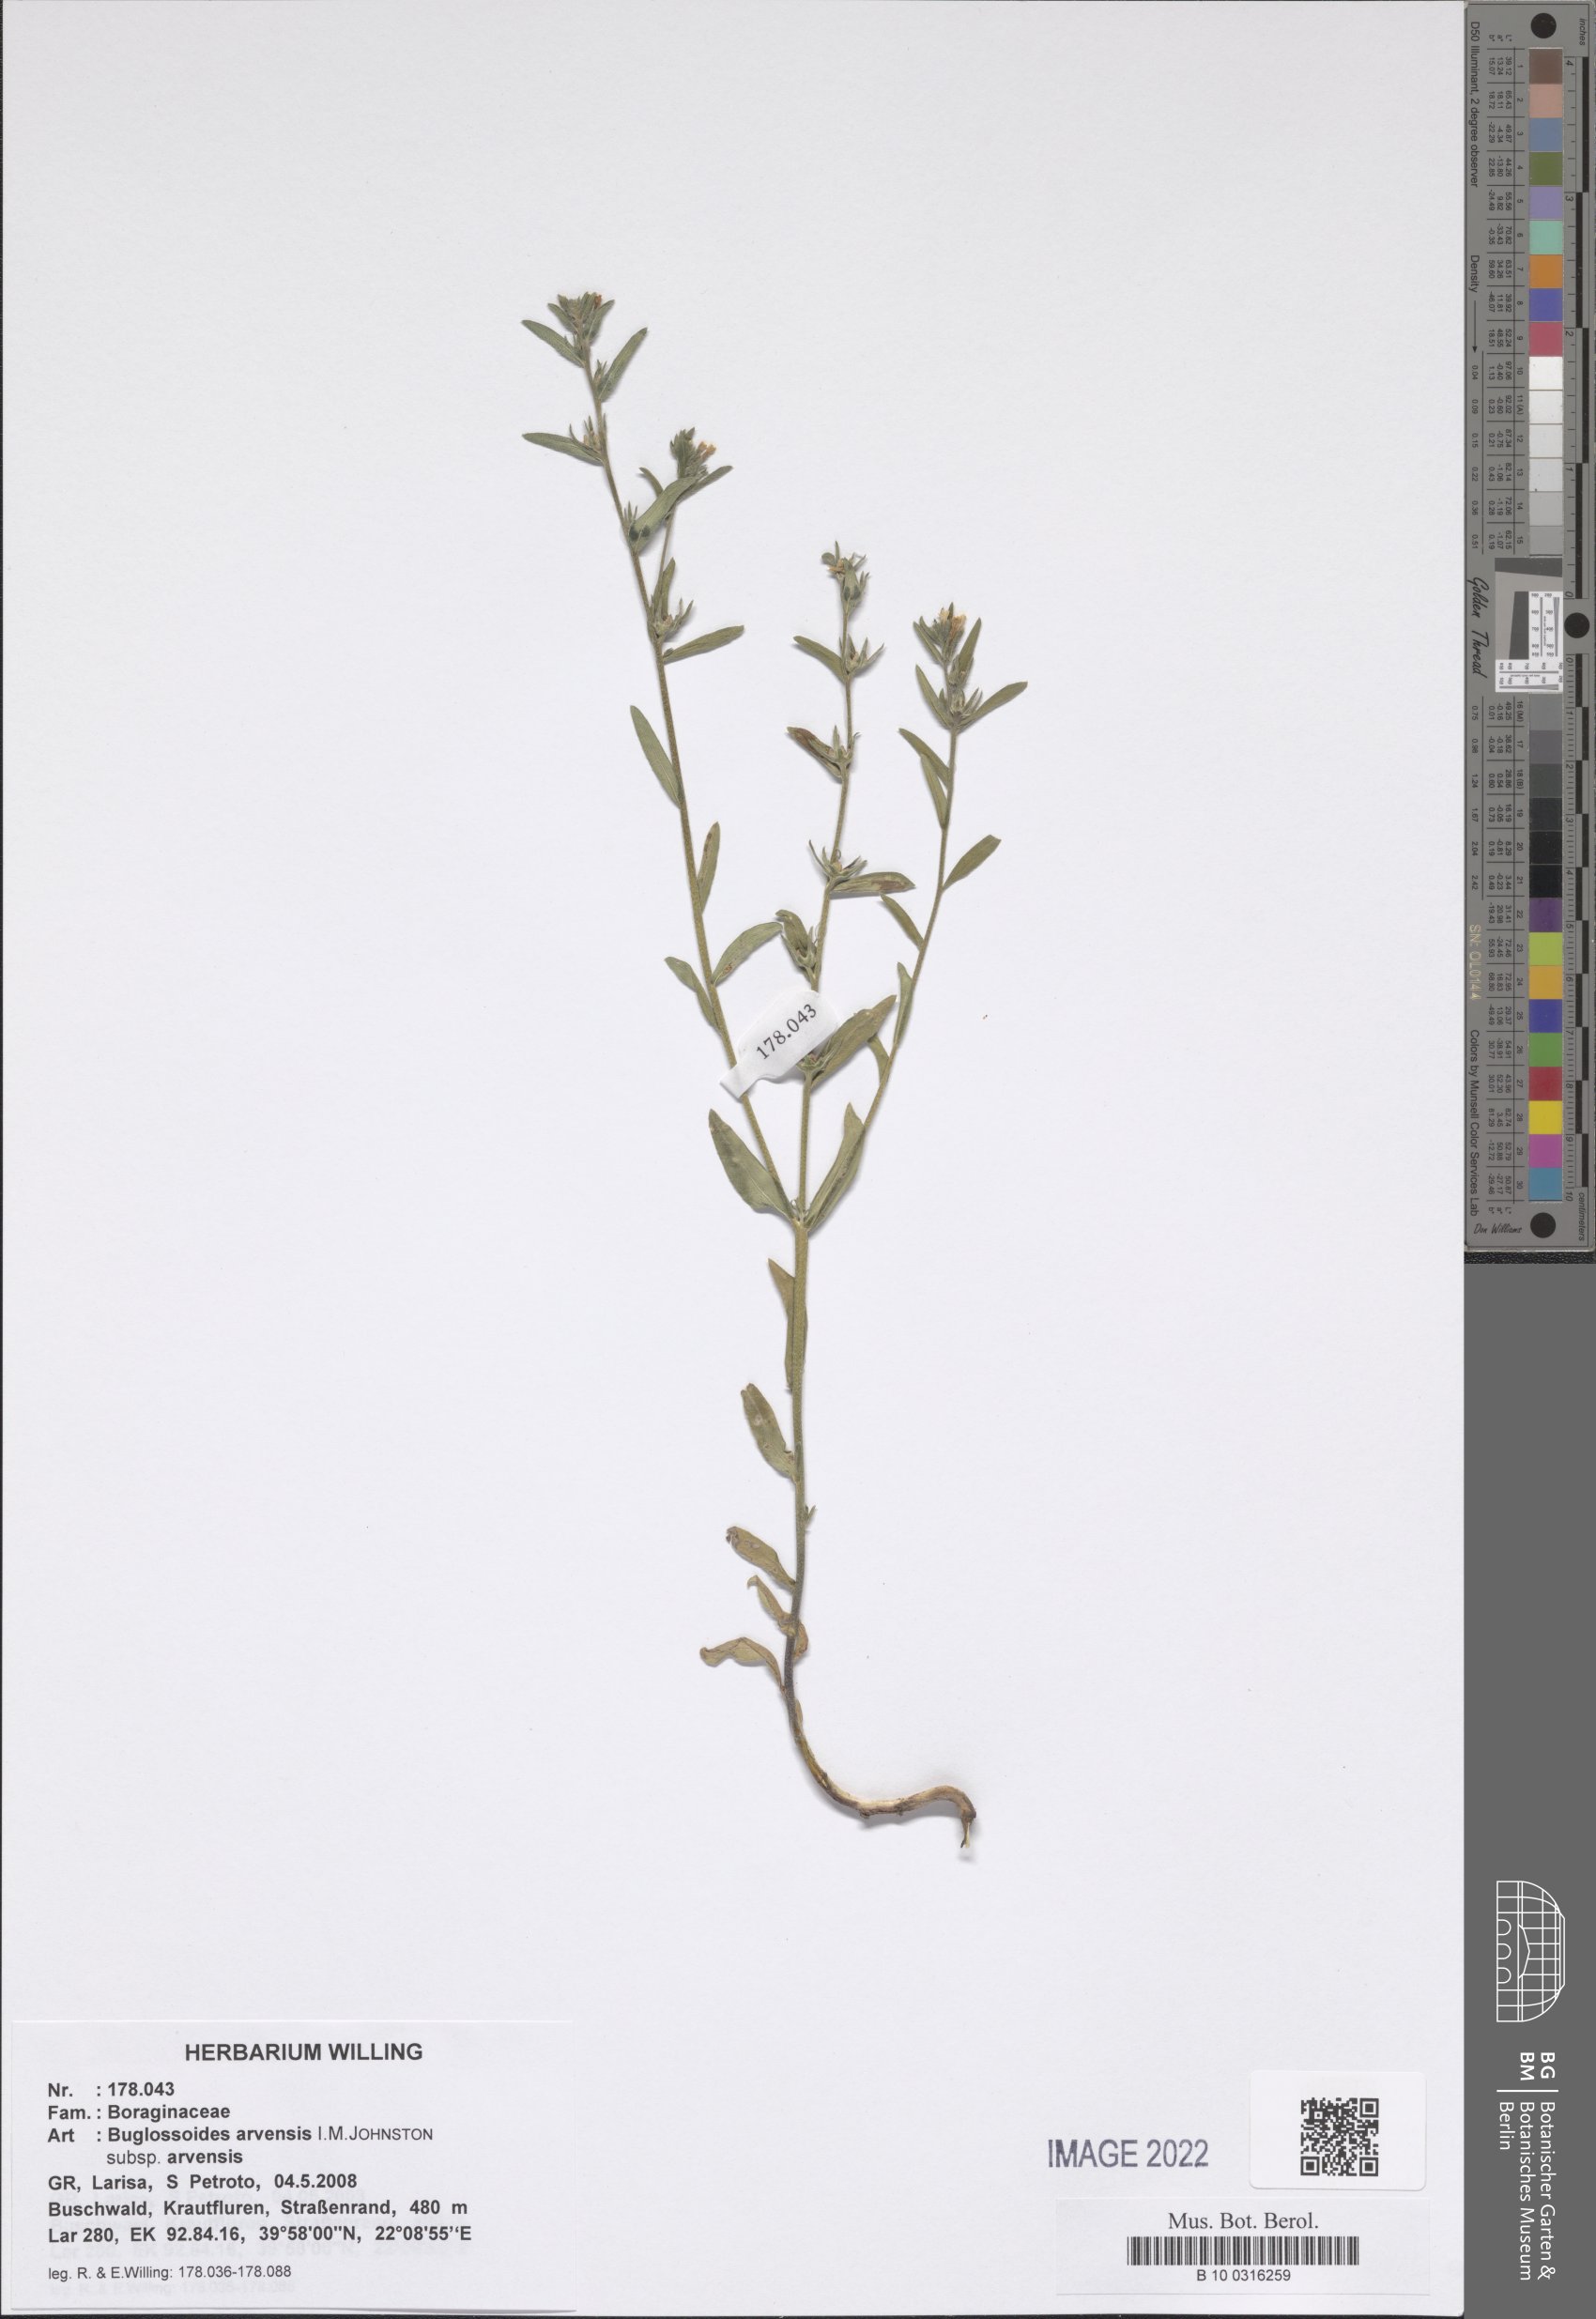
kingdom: Plantae
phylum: Tracheophyta
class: Magnoliopsida
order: Boraginales
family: Boraginaceae
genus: Buglossoides
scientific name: Buglossoides arvensis
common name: Corn gromwell
